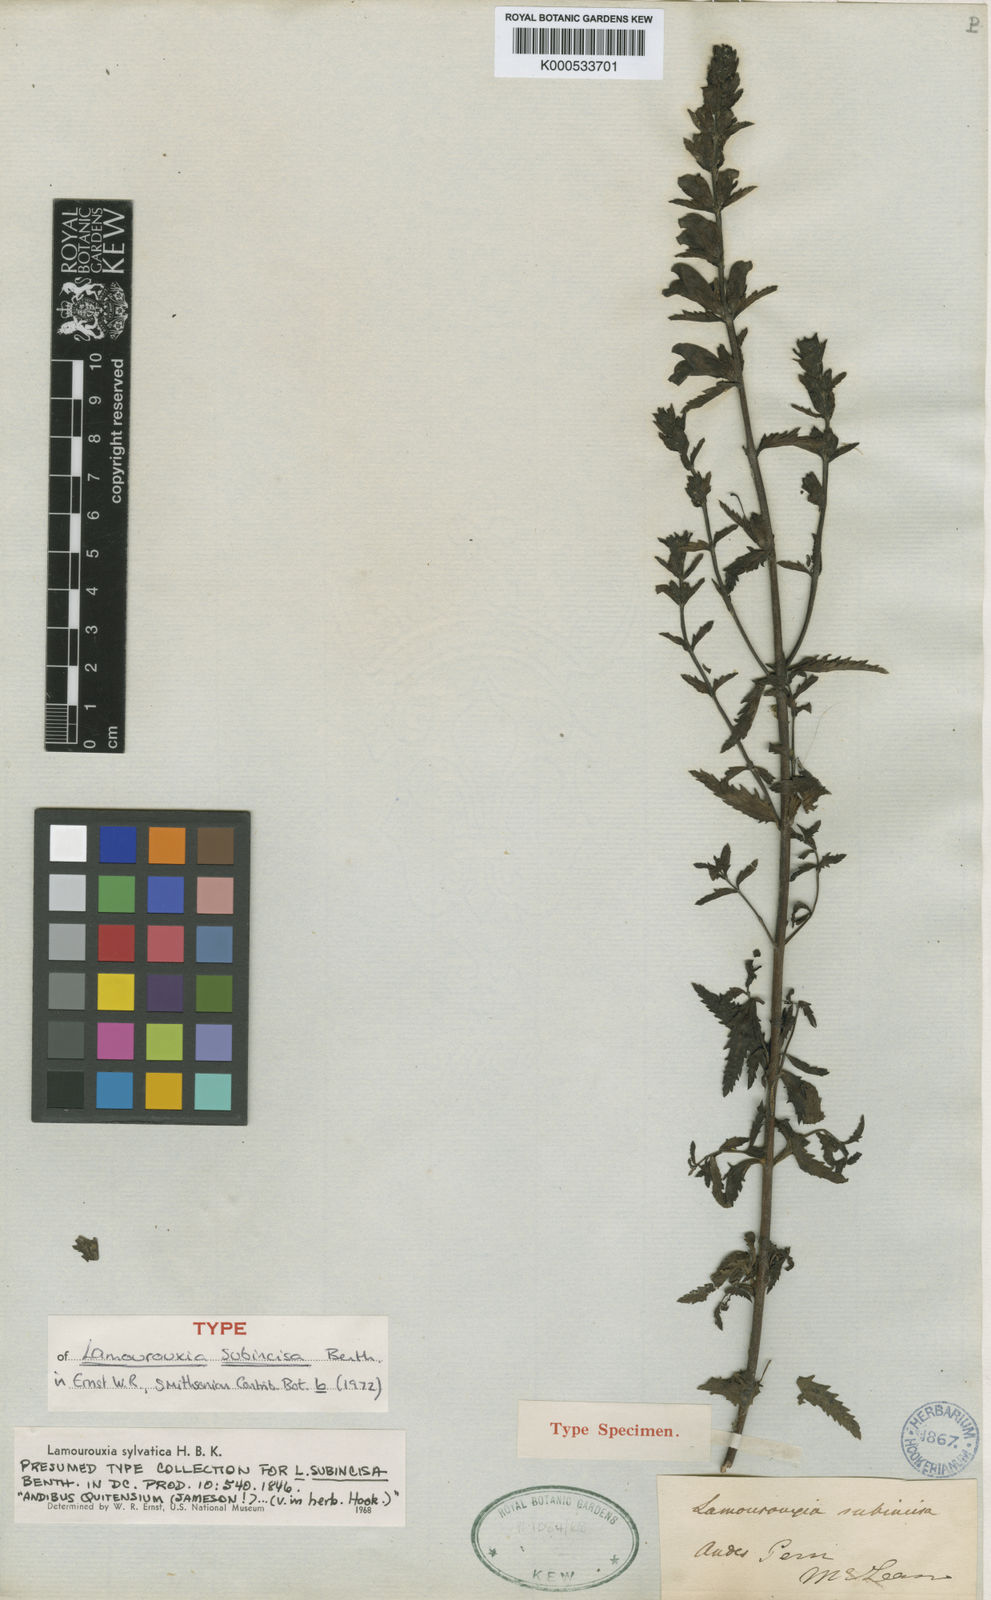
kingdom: Plantae
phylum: Tracheophyta
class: Magnoliopsida
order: Lamiales
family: Orobanchaceae
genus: Lamourouxia
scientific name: Lamourouxia sylvatica
